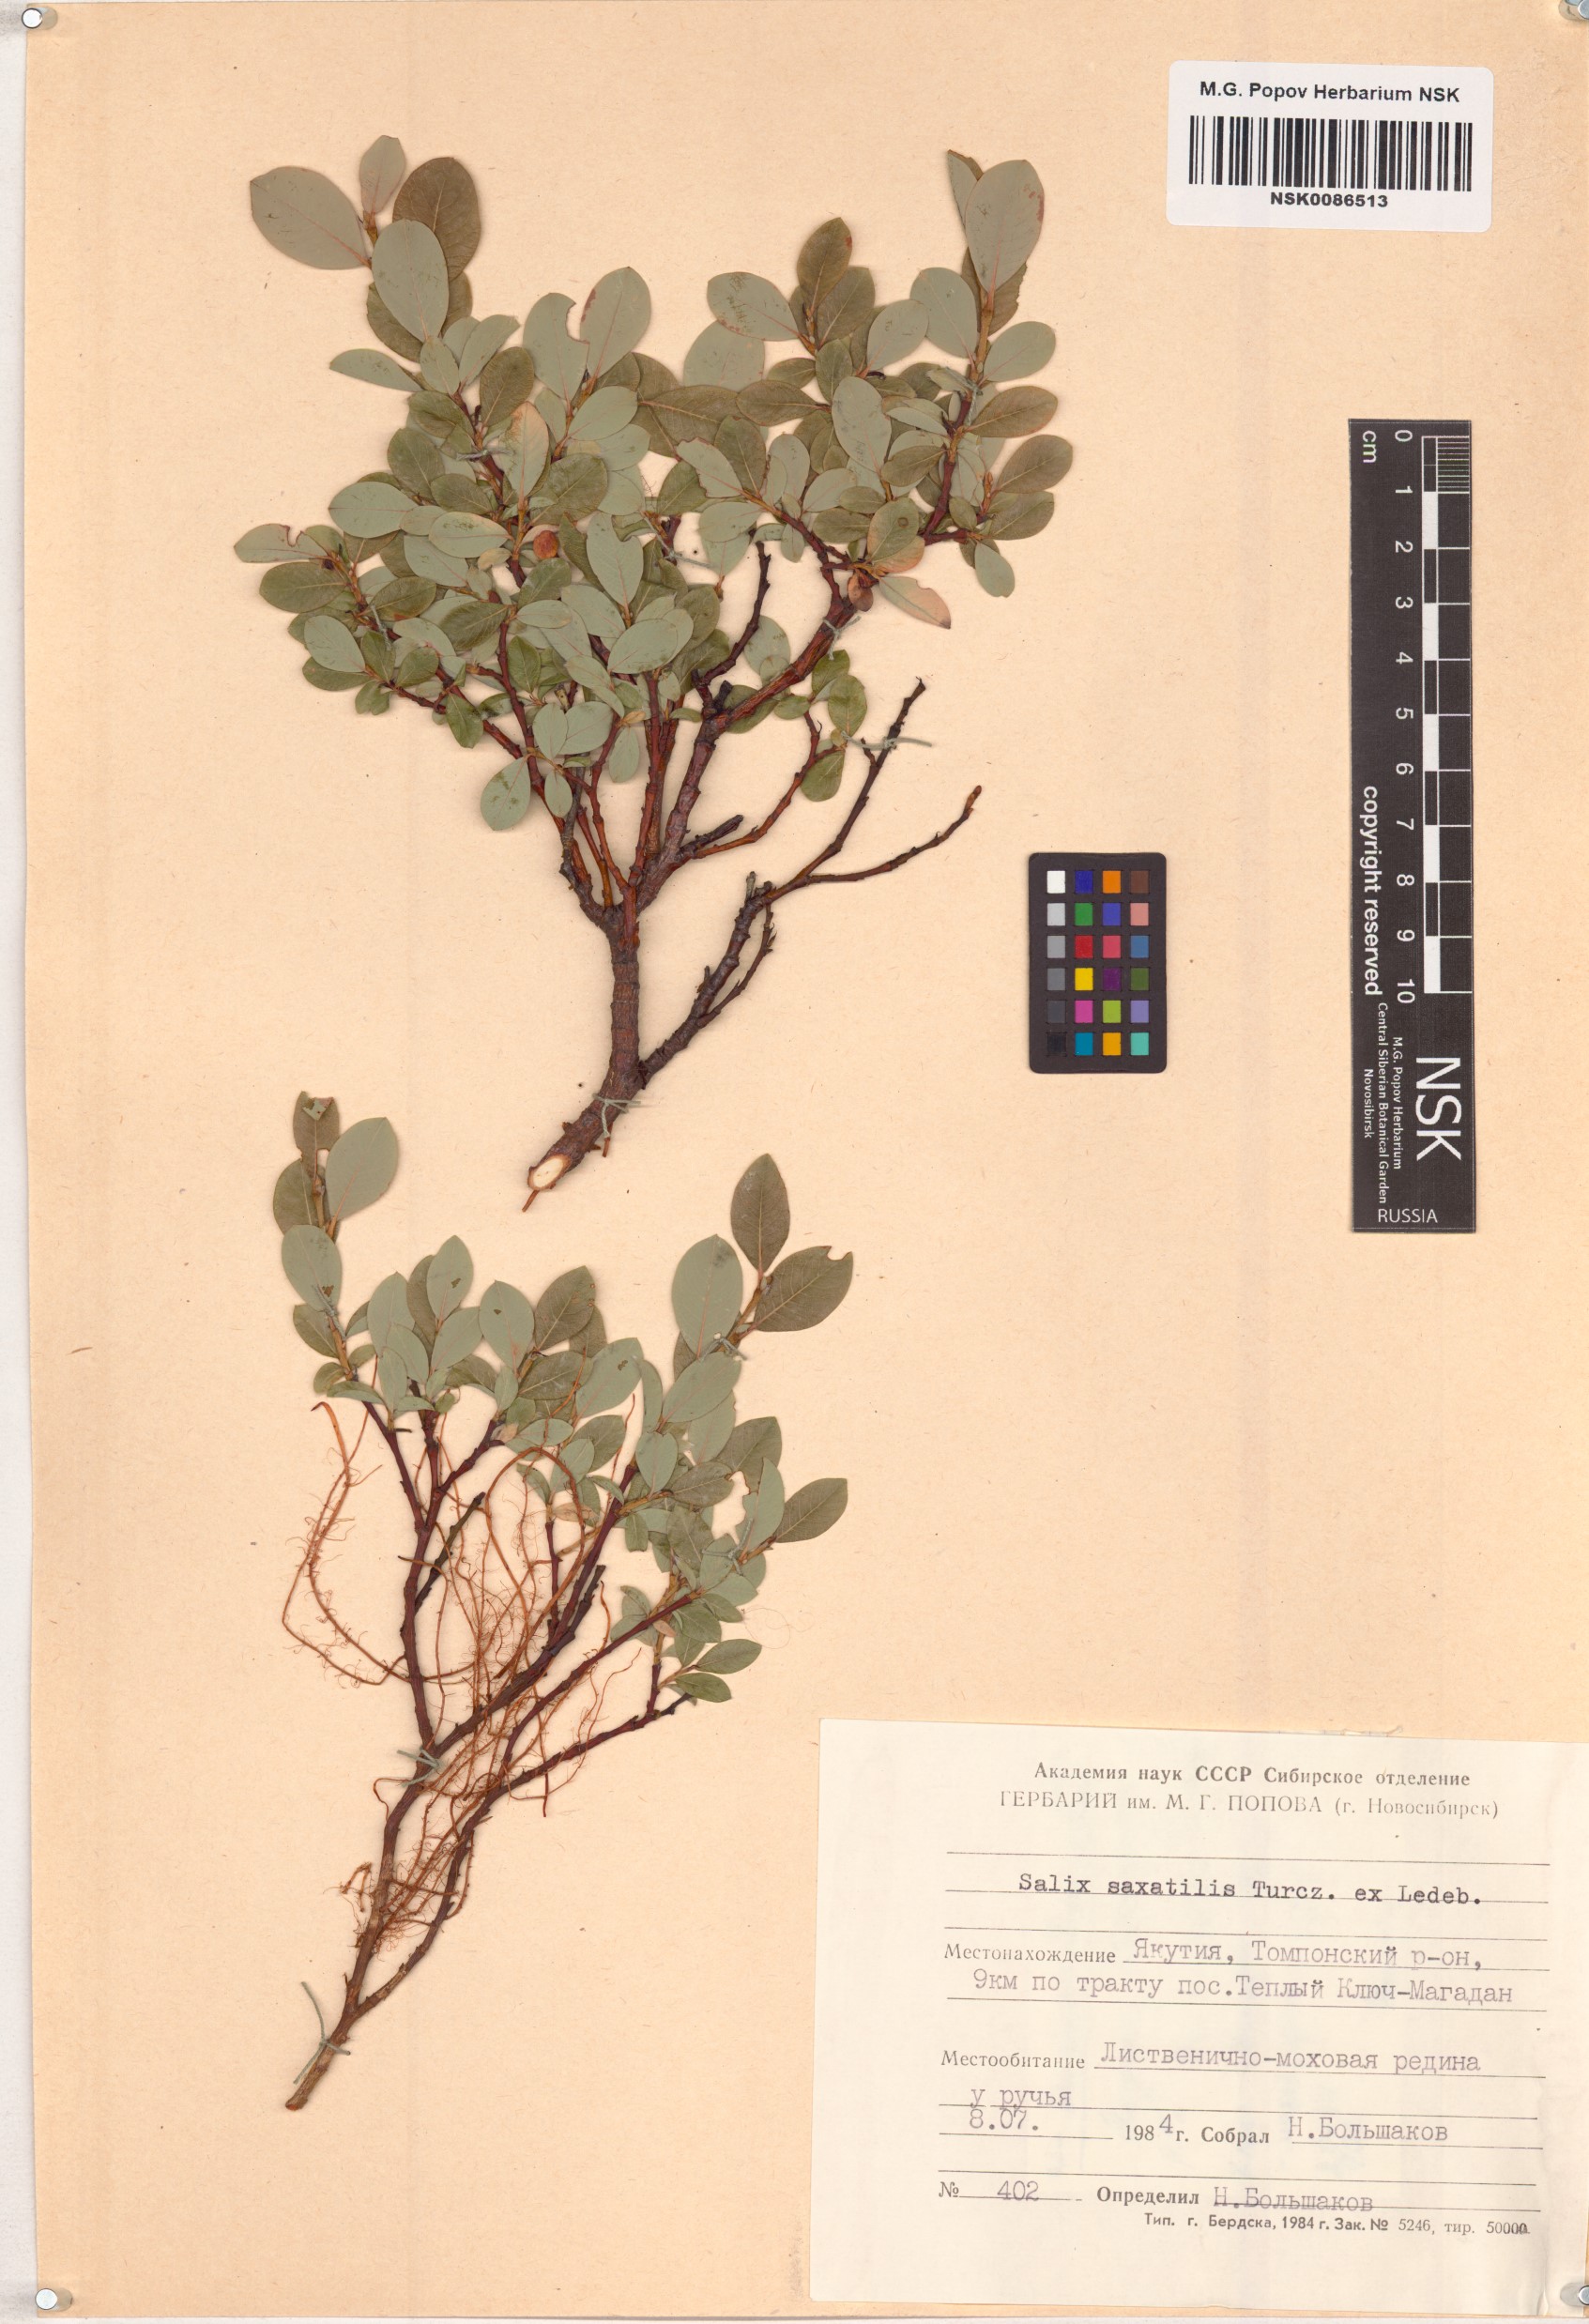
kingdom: Plantae
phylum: Tracheophyta
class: Magnoliopsida
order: Malpighiales
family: Salicaceae
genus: Salix
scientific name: Salix saxatilis
